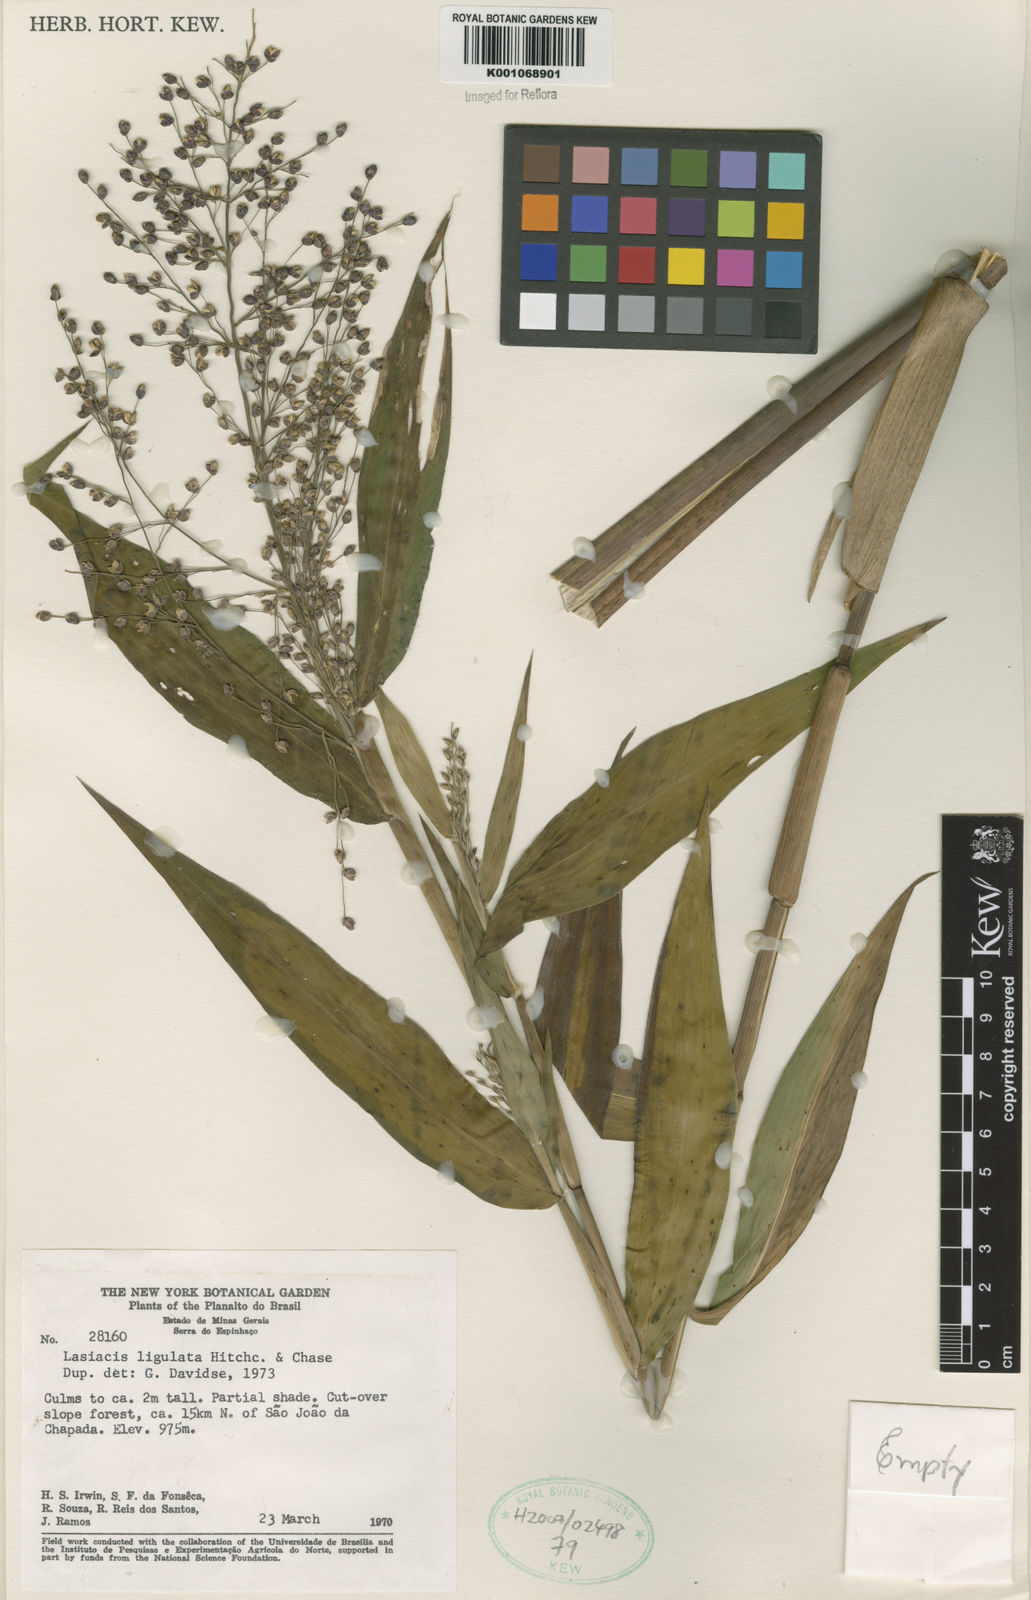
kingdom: Plantae
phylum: Tracheophyta
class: Liliopsida
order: Poales
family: Poaceae
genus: Lasiacis
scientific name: Lasiacis ligulata
